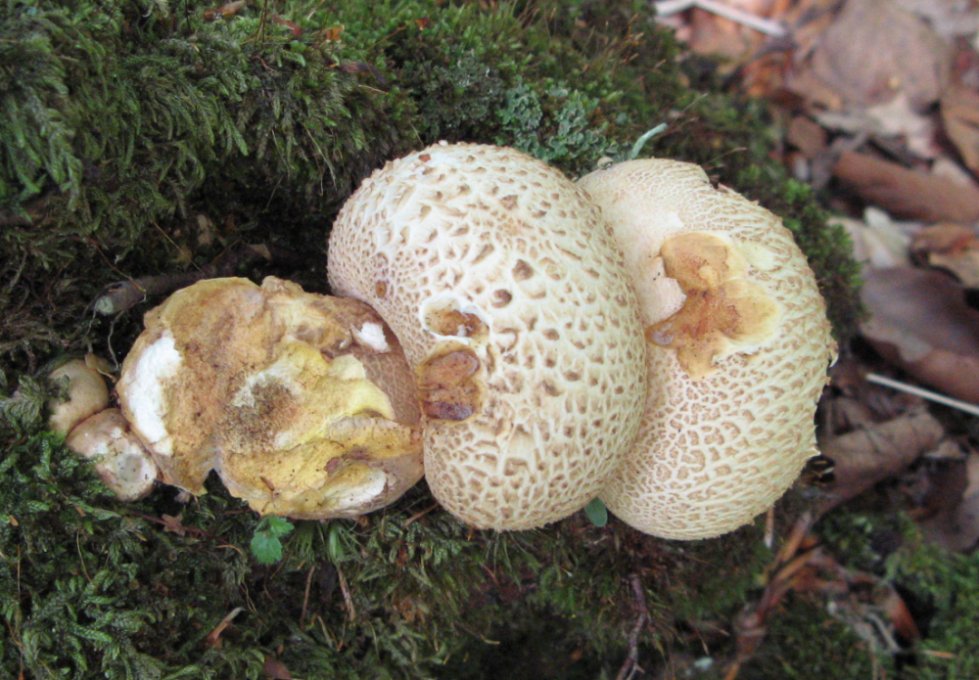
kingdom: Fungi
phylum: Basidiomycota
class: Agaricomycetes
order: Boletales
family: Sclerodermataceae
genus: Scleroderma
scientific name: Scleroderma citrinum
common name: almindelig bruskbold
